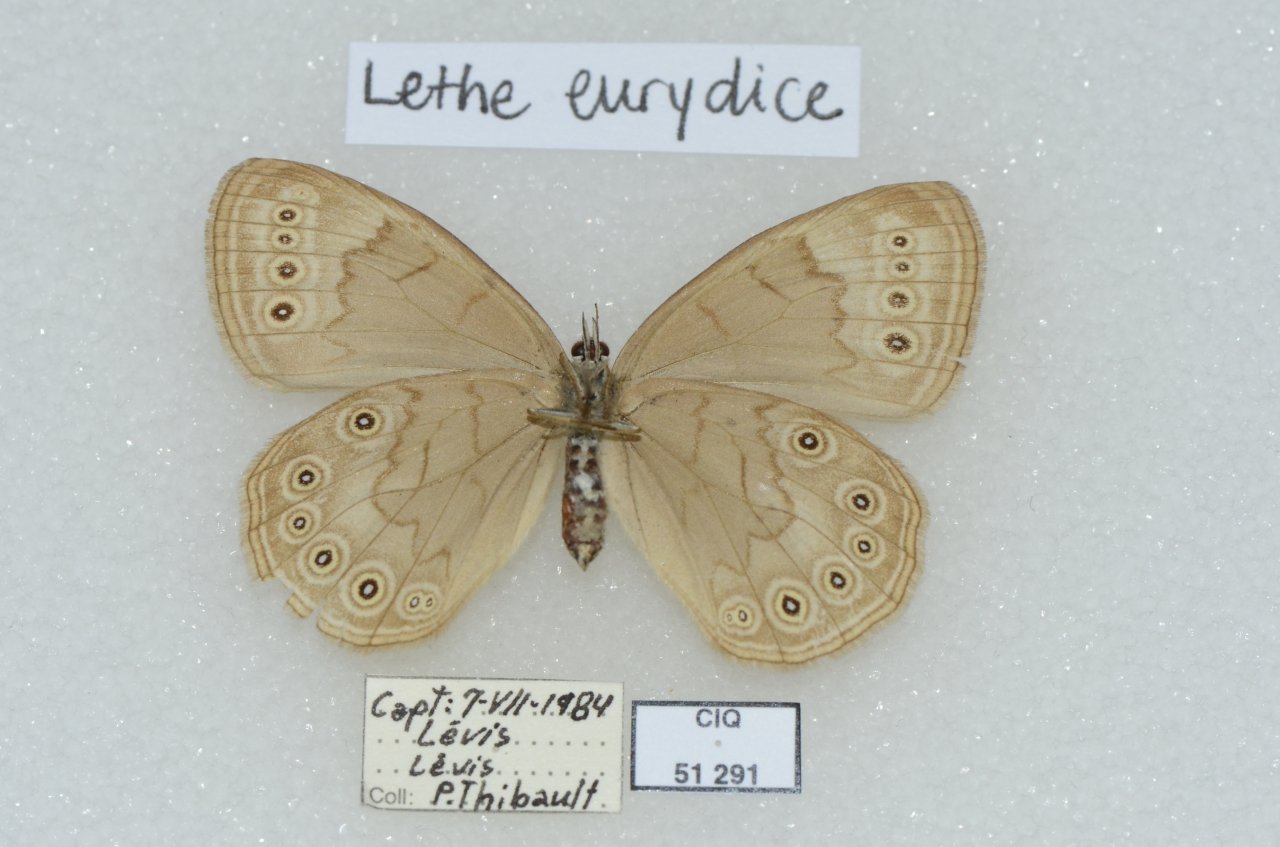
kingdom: Animalia
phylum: Arthropoda
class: Insecta
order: Lepidoptera
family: Nymphalidae
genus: Lethe
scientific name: Lethe eurydice
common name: Eyed Brown
